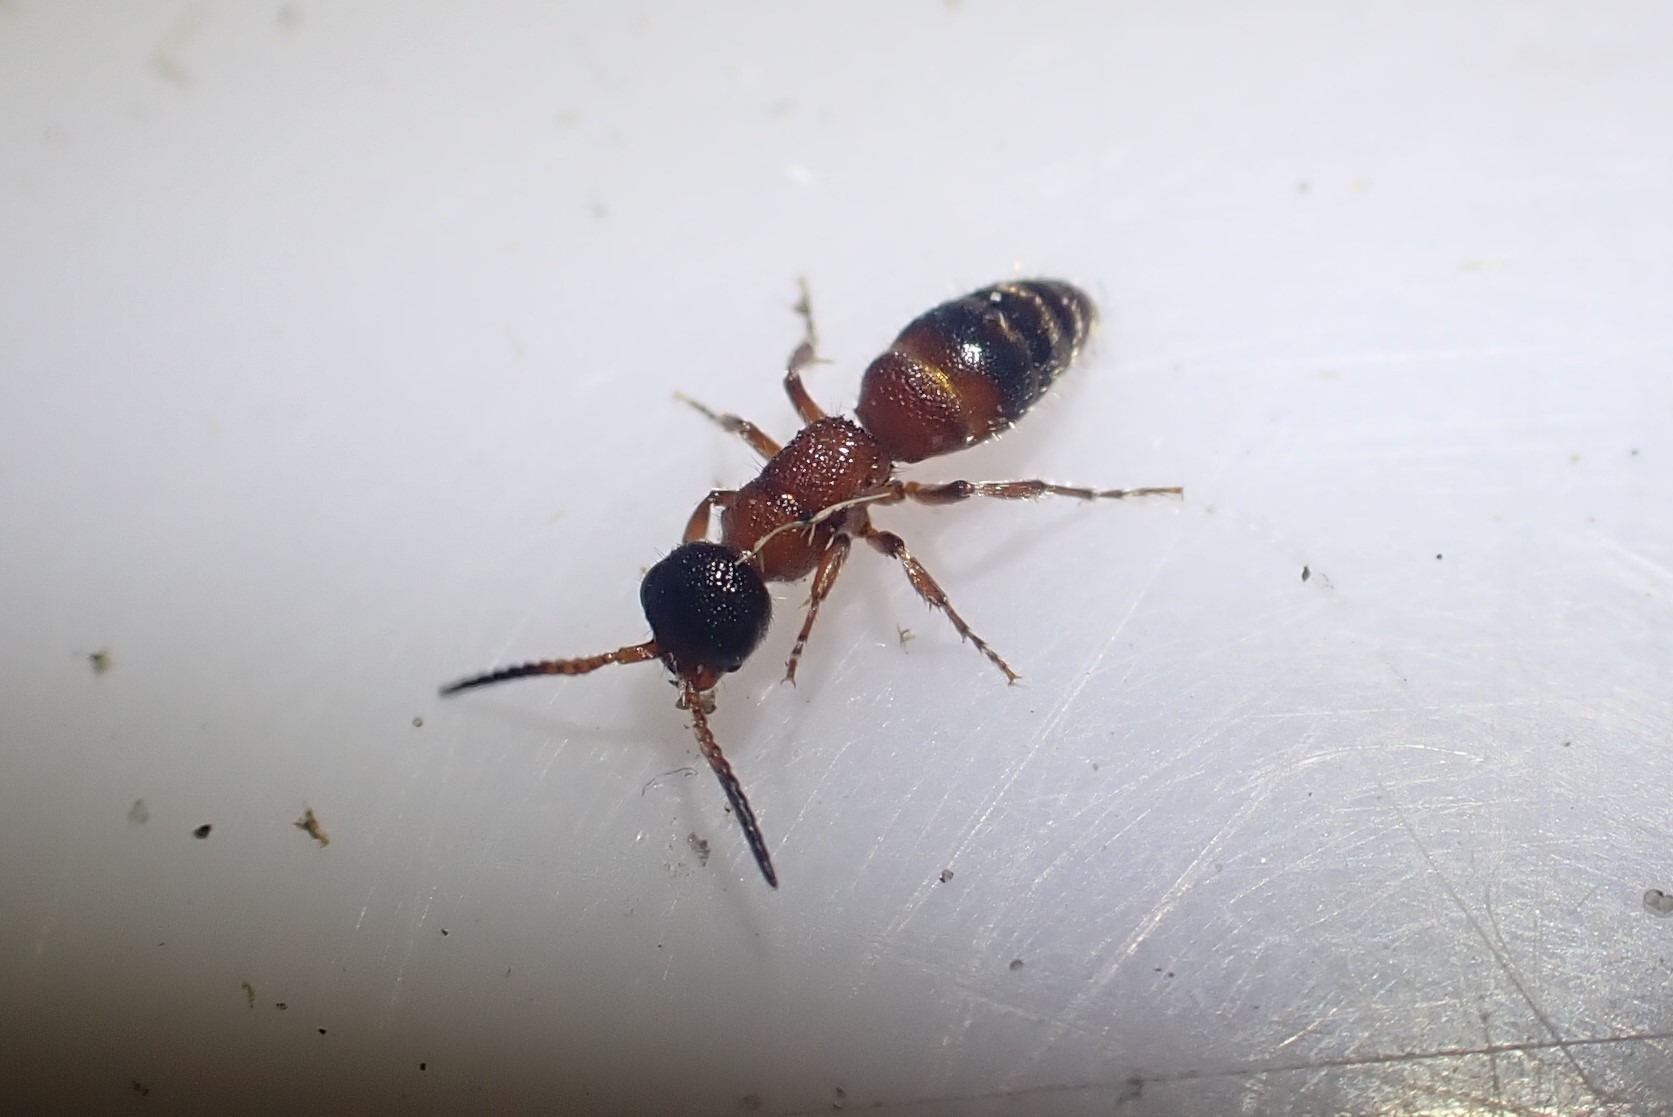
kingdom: Animalia
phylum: Arthropoda
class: Insecta
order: Hymenoptera
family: Mutillidae
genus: Myrmosa
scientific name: Myrmosa atra
